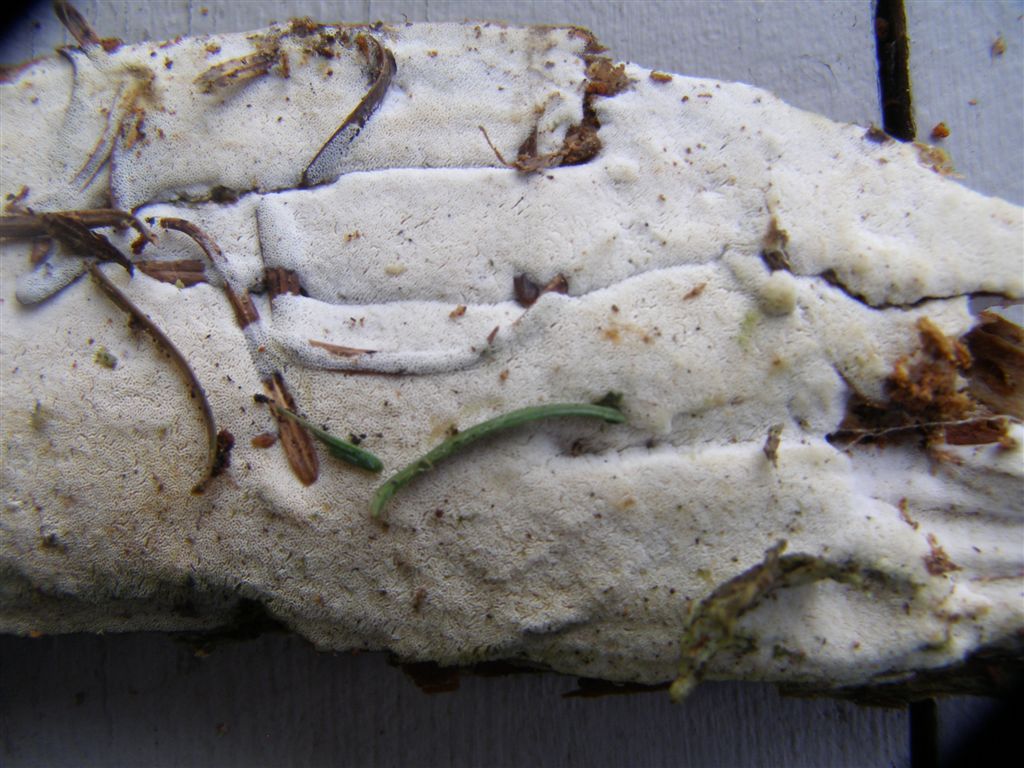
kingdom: Fungi
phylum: Basidiomycota
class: Agaricomycetes
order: Polyporales
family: Fomitopsidaceae
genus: Daedalea
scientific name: Daedalea xantha
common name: gul sejporesvamp
